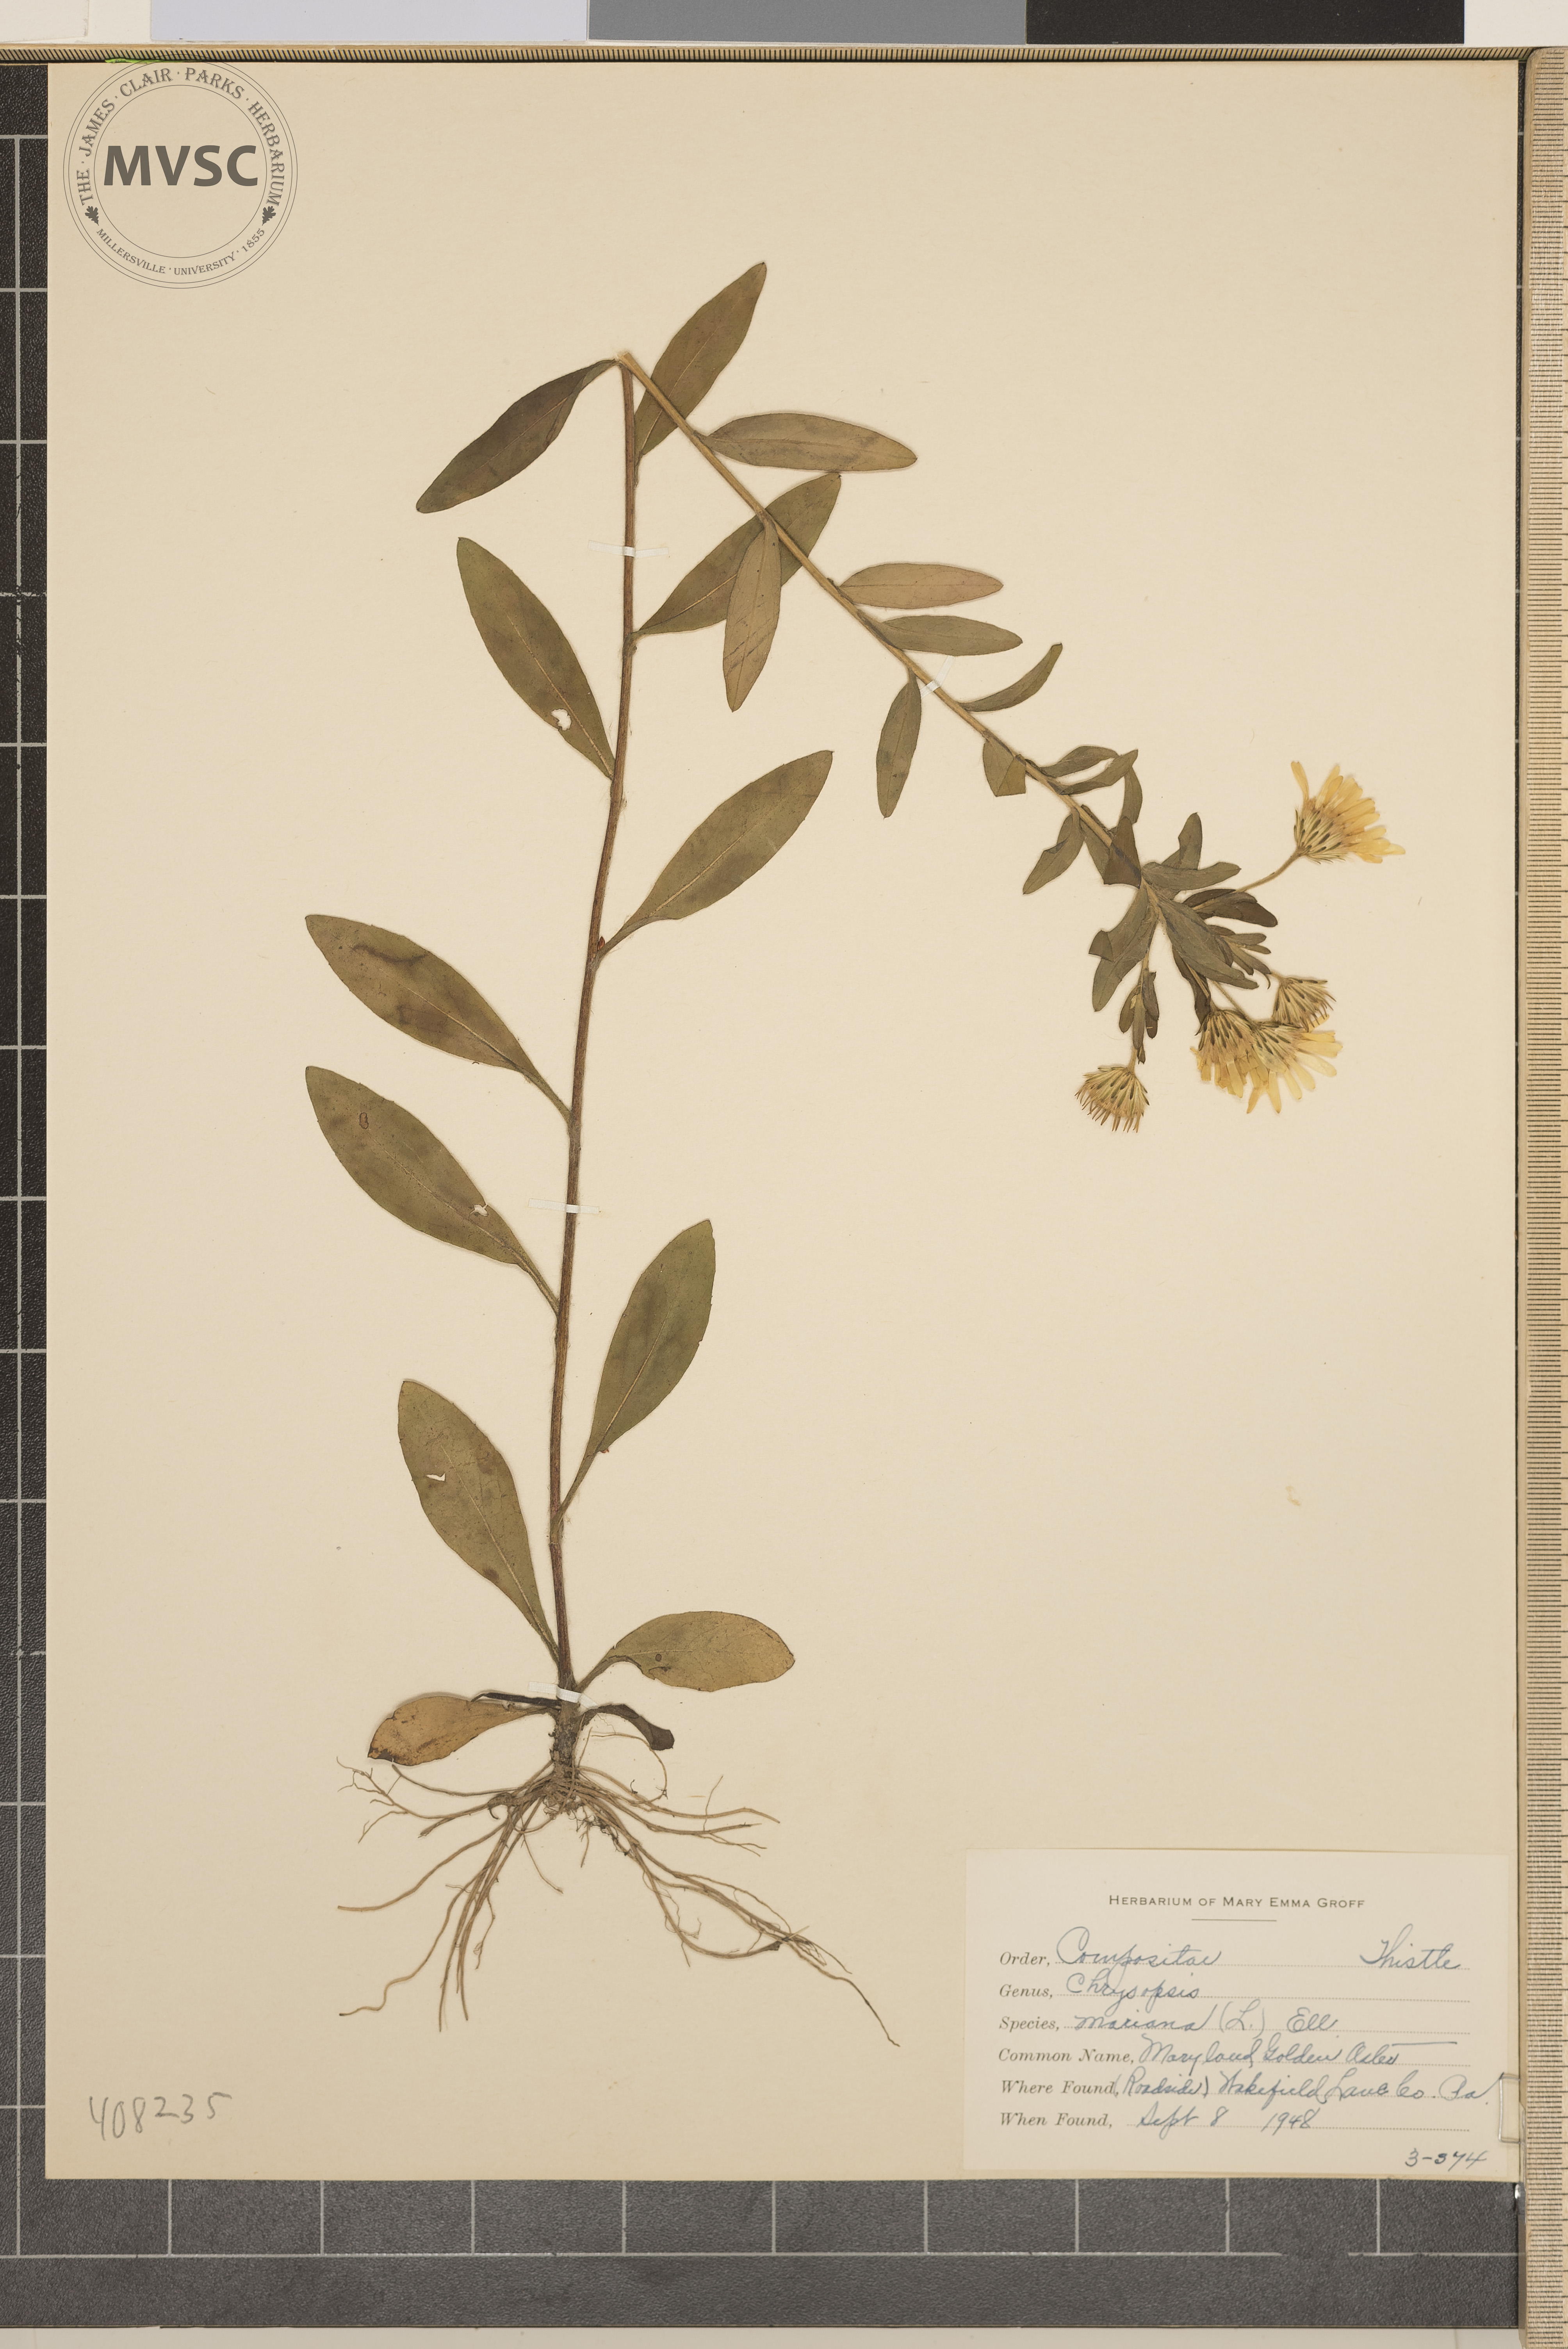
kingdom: Plantae
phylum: Tracheophyta
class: Magnoliopsida
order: Asterales
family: Asteraceae
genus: Chrysopsis
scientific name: Chrysopsis mariana
